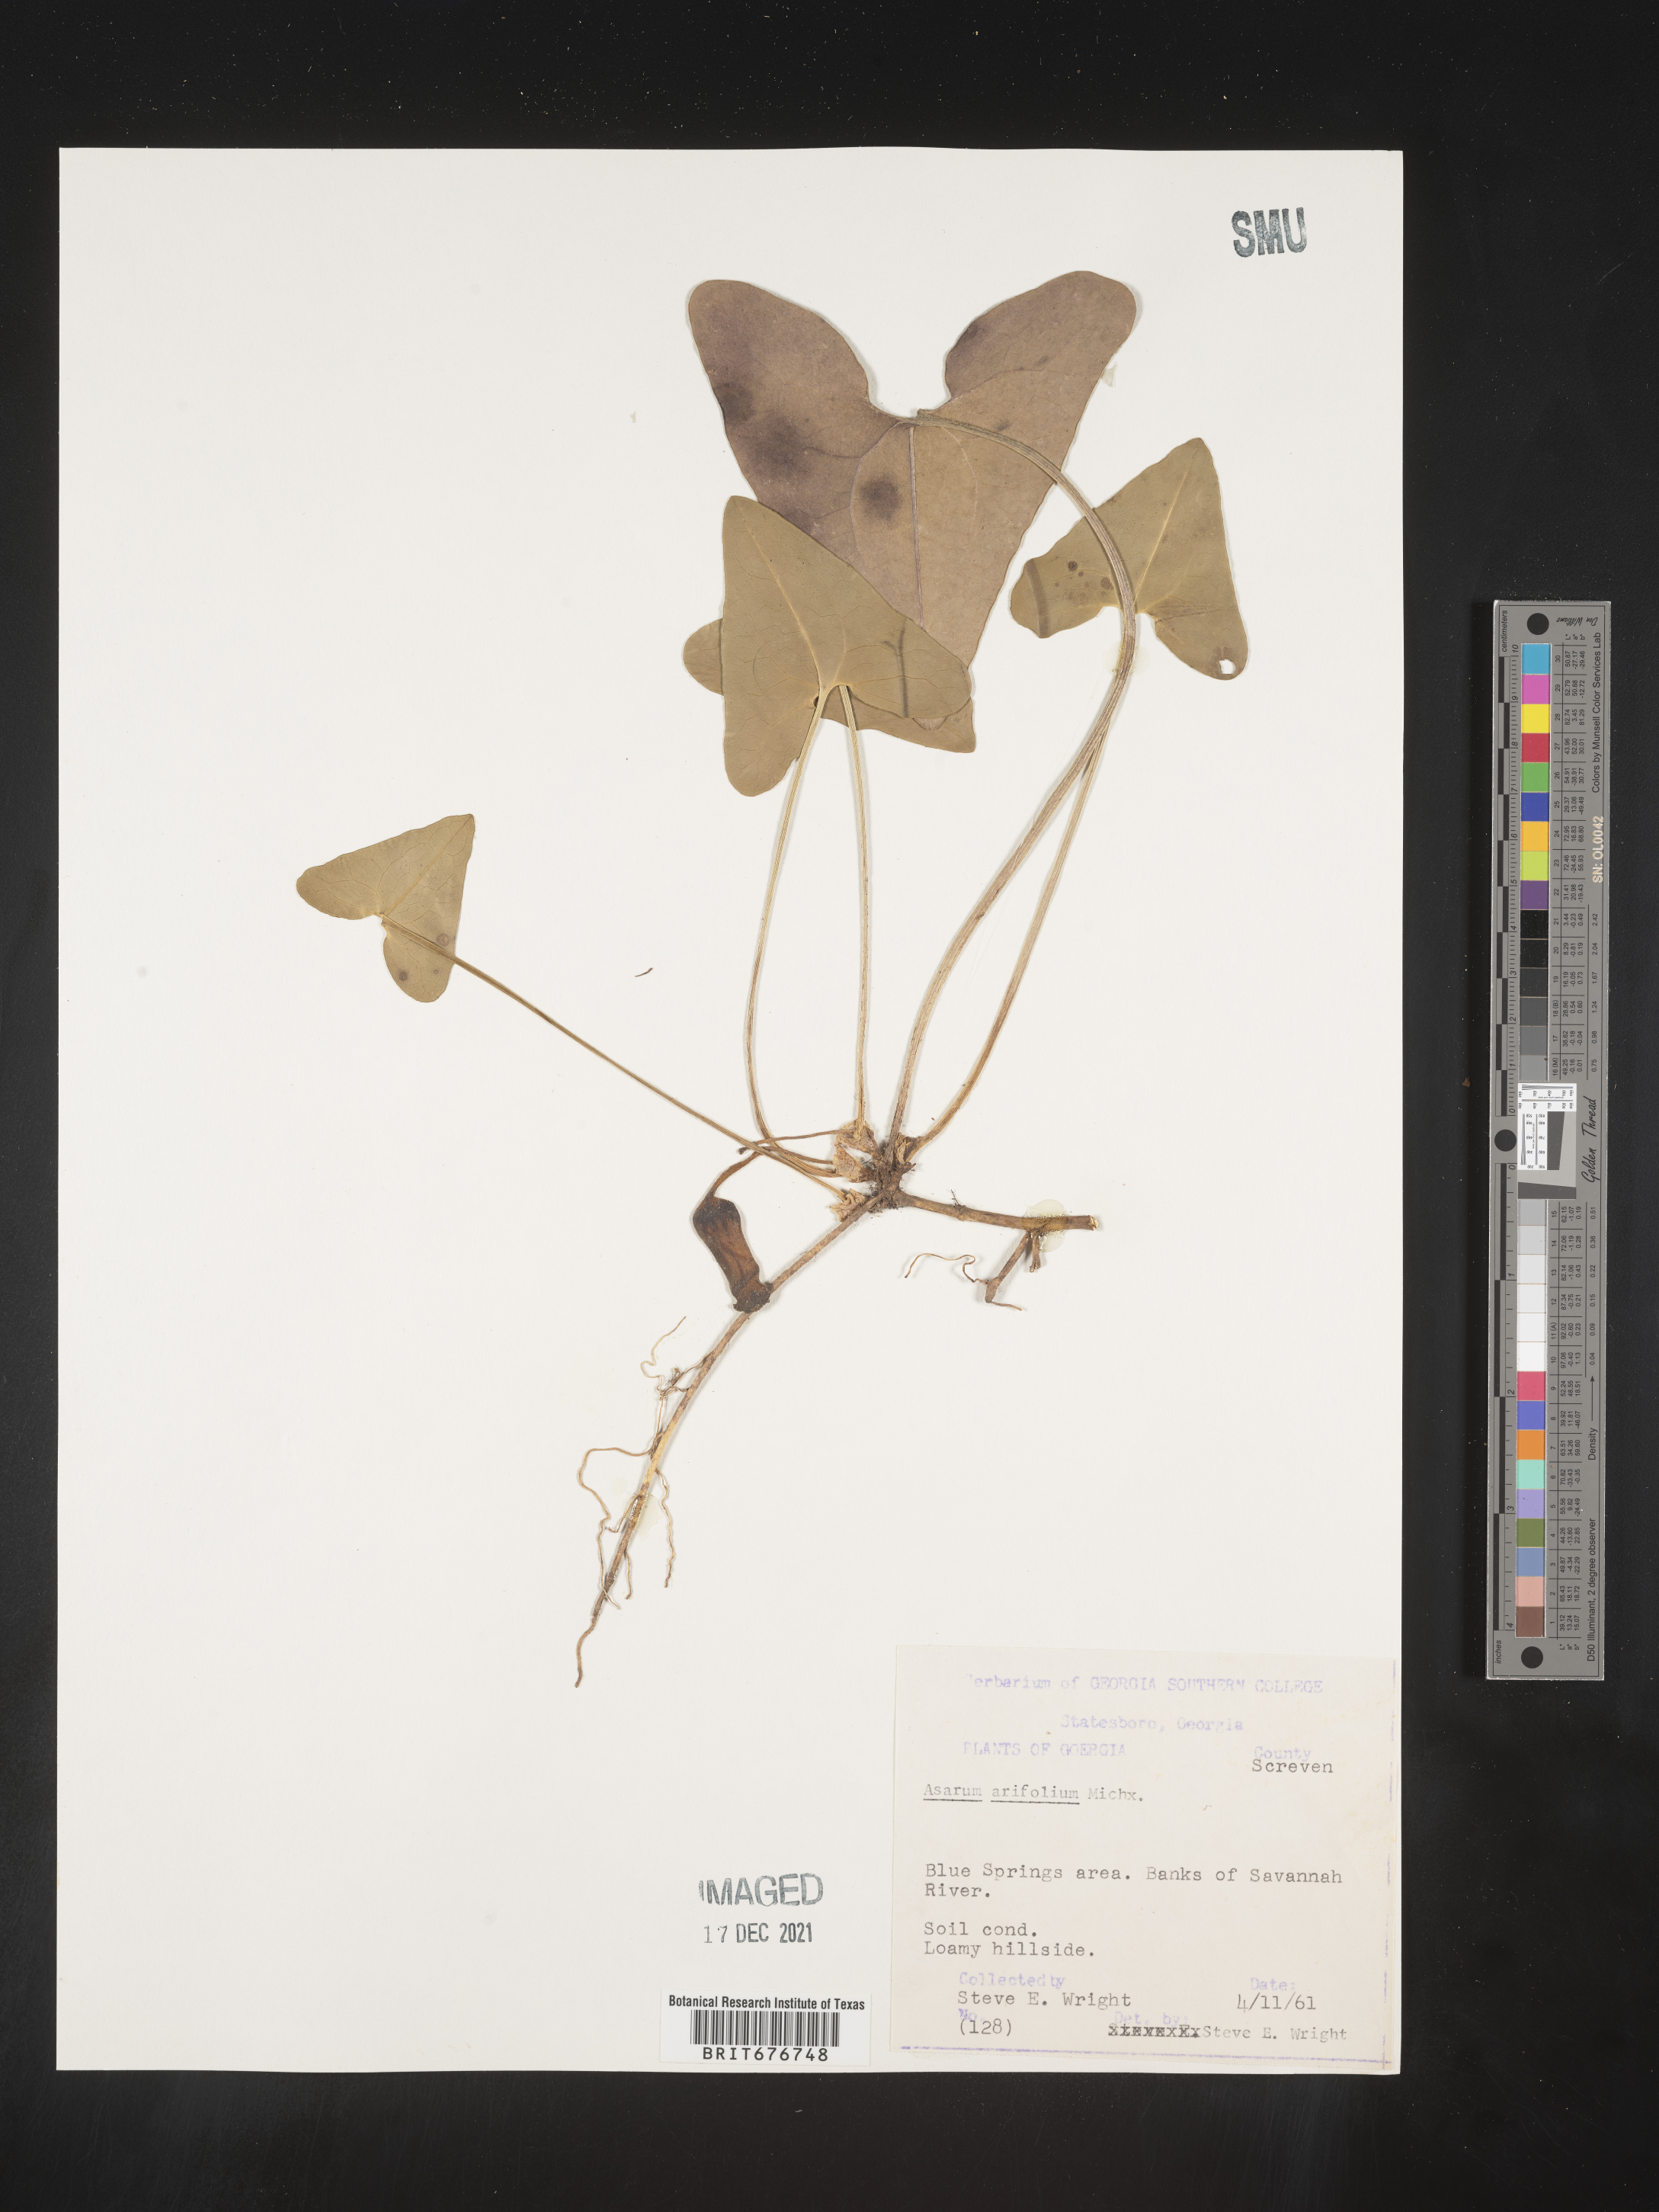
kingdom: Plantae
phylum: Tracheophyta
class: Magnoliopsida
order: Piperales
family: Aristolochiaceae
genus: Hexastylis
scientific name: Hexastylis arifolia
